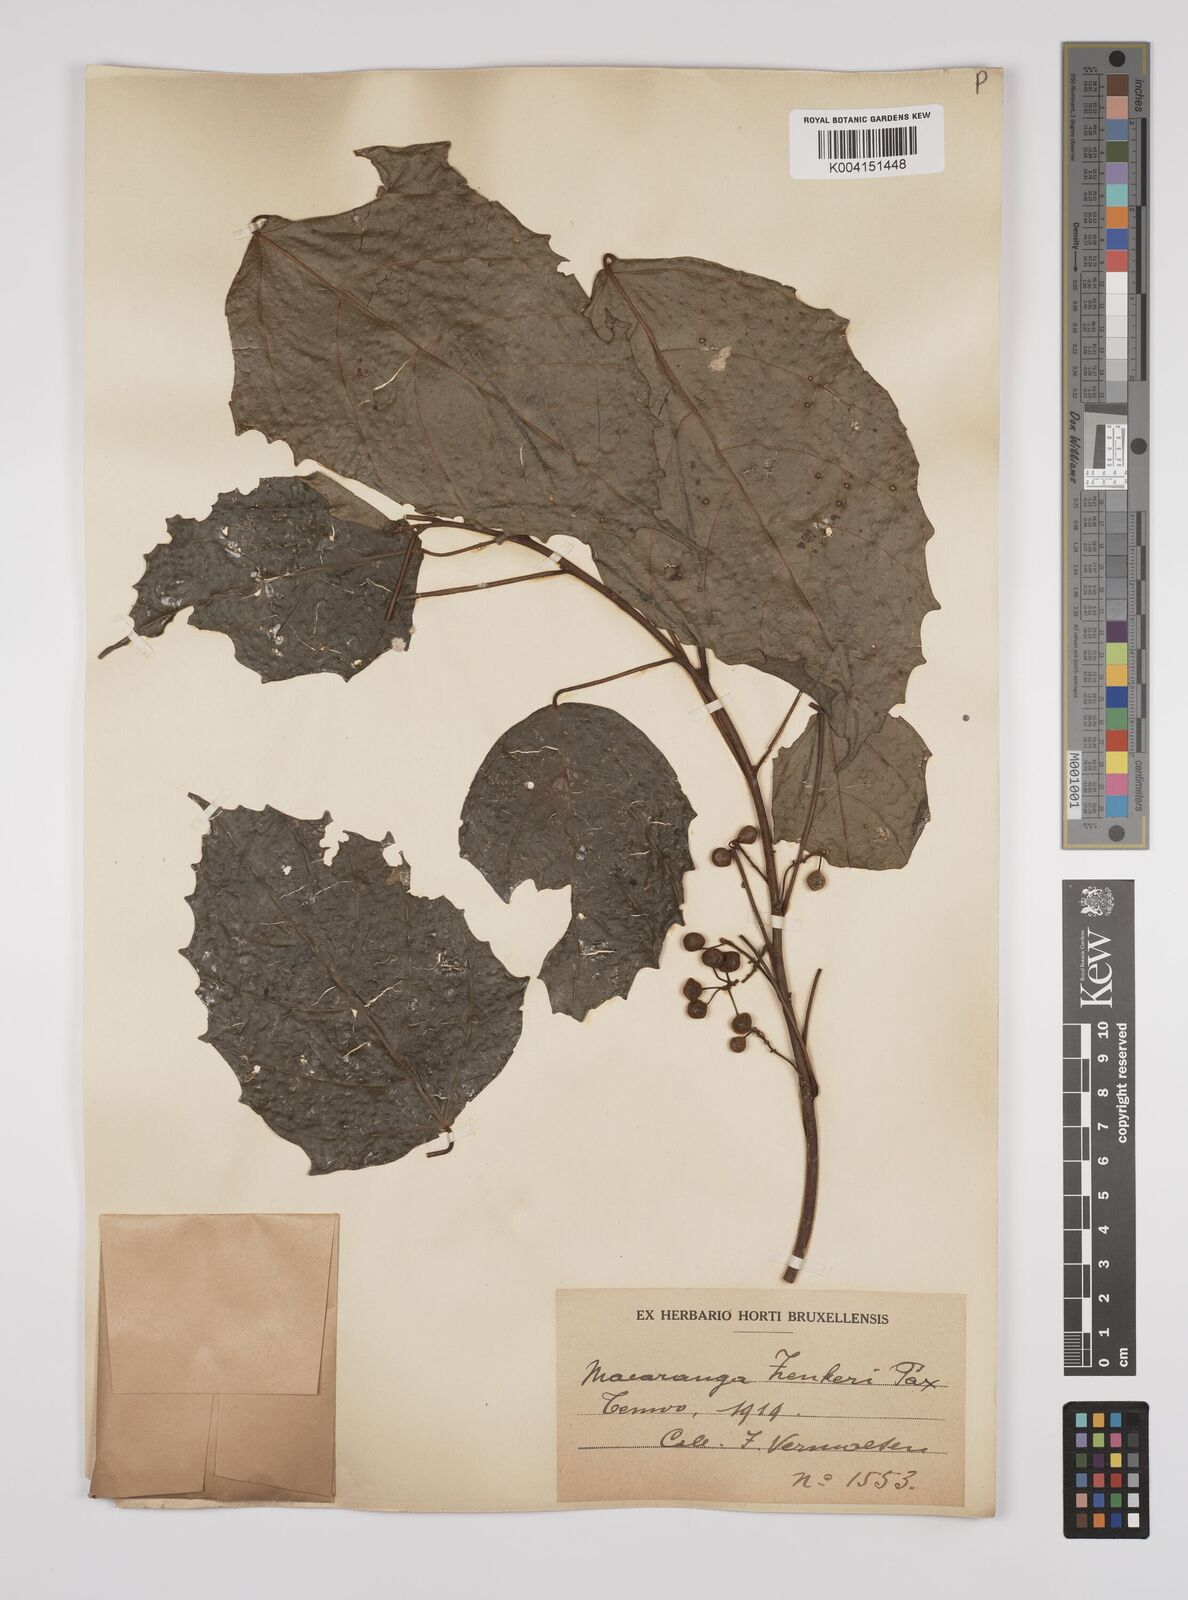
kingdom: Plantae
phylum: Tracheophyta
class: Magnoliopsida
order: Malpighiales
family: Euphorbiaceae
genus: Macaranga
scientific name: Macaranga monandra
